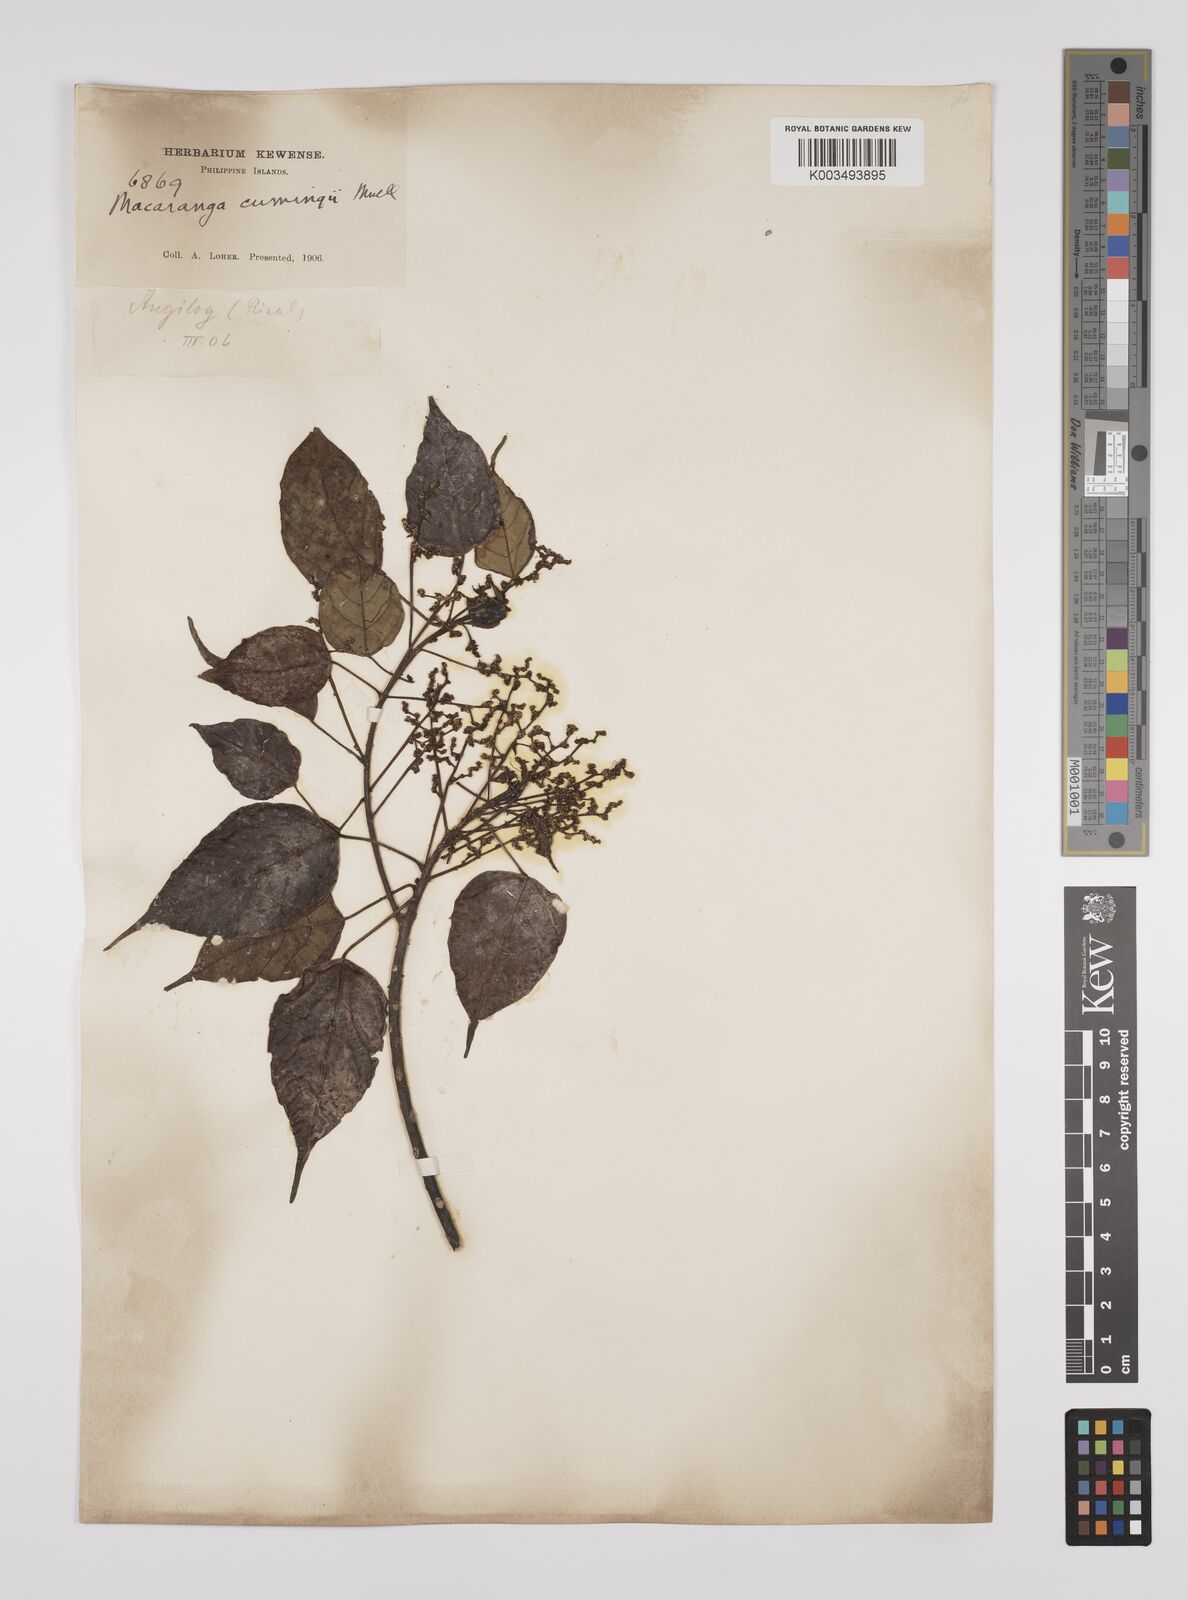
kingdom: Plantae
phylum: Tracheophyta
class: Magnoliopsida
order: Malpighiales
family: Euphorbiaceae
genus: Macaranga
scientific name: Macaranga cumingii
